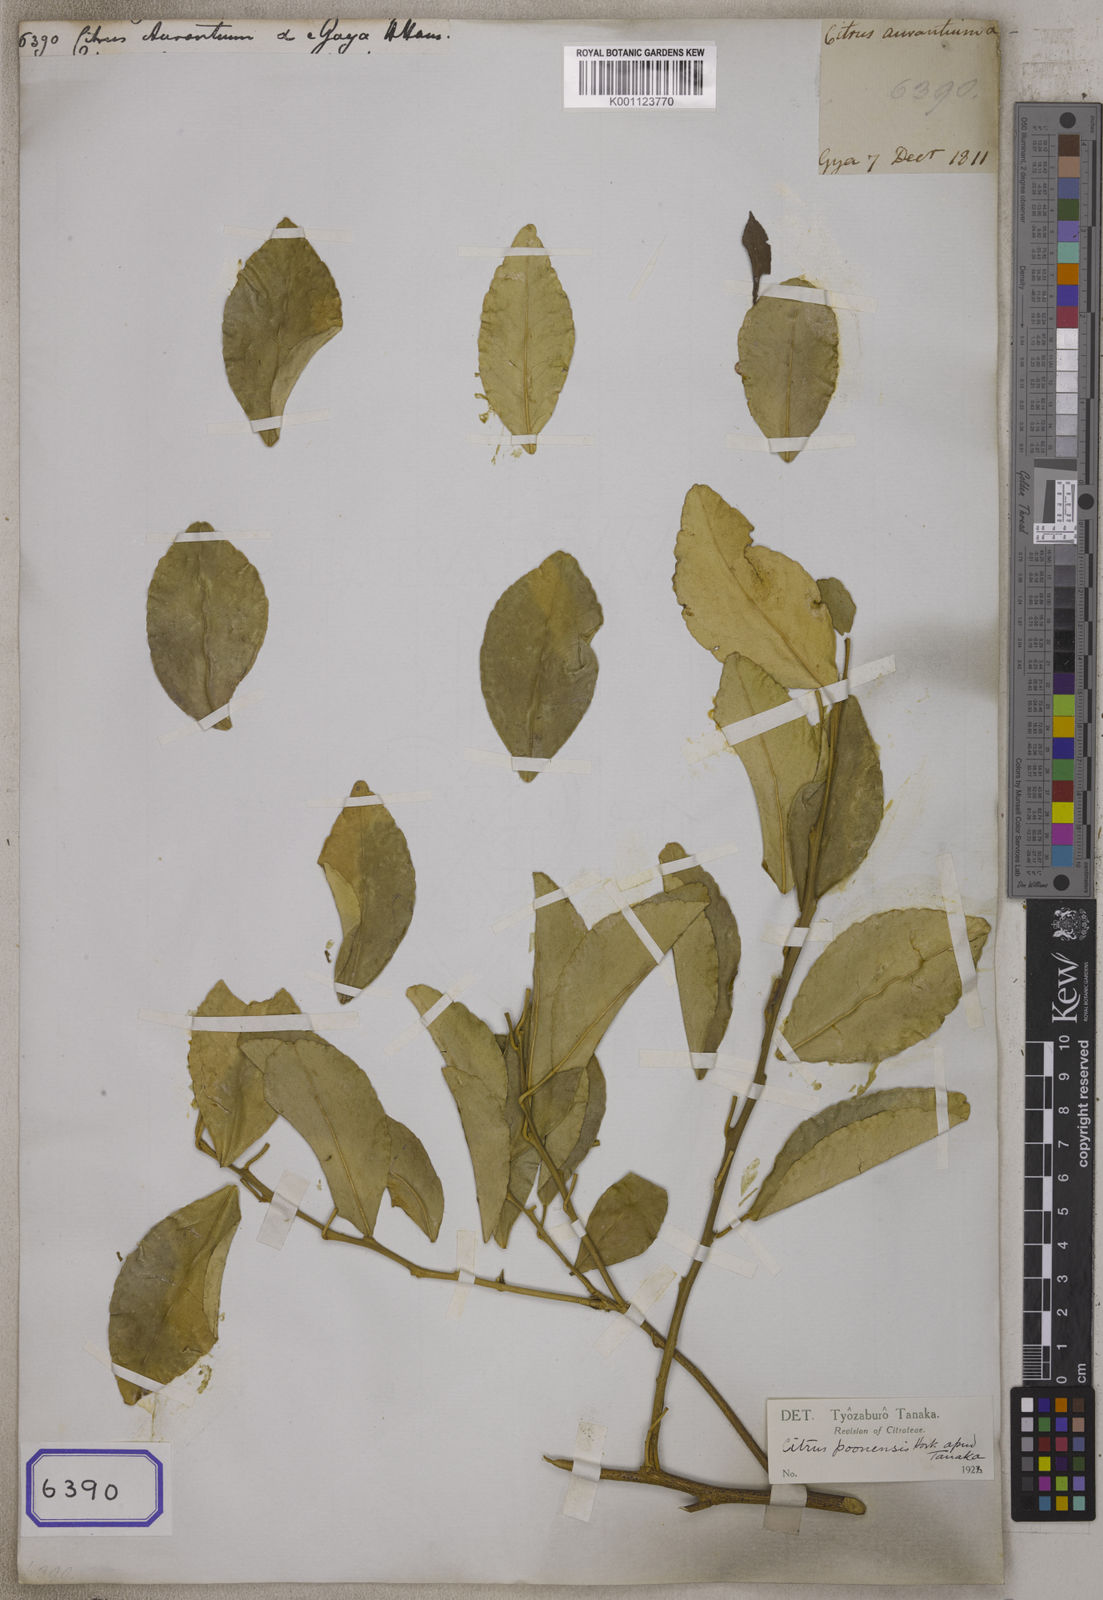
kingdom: Plantae
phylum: Tracheophyta
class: Magnoliopsida
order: Sapindales
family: Rutaceae
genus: Citrus
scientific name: Citrus aurantium
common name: Sour orange
